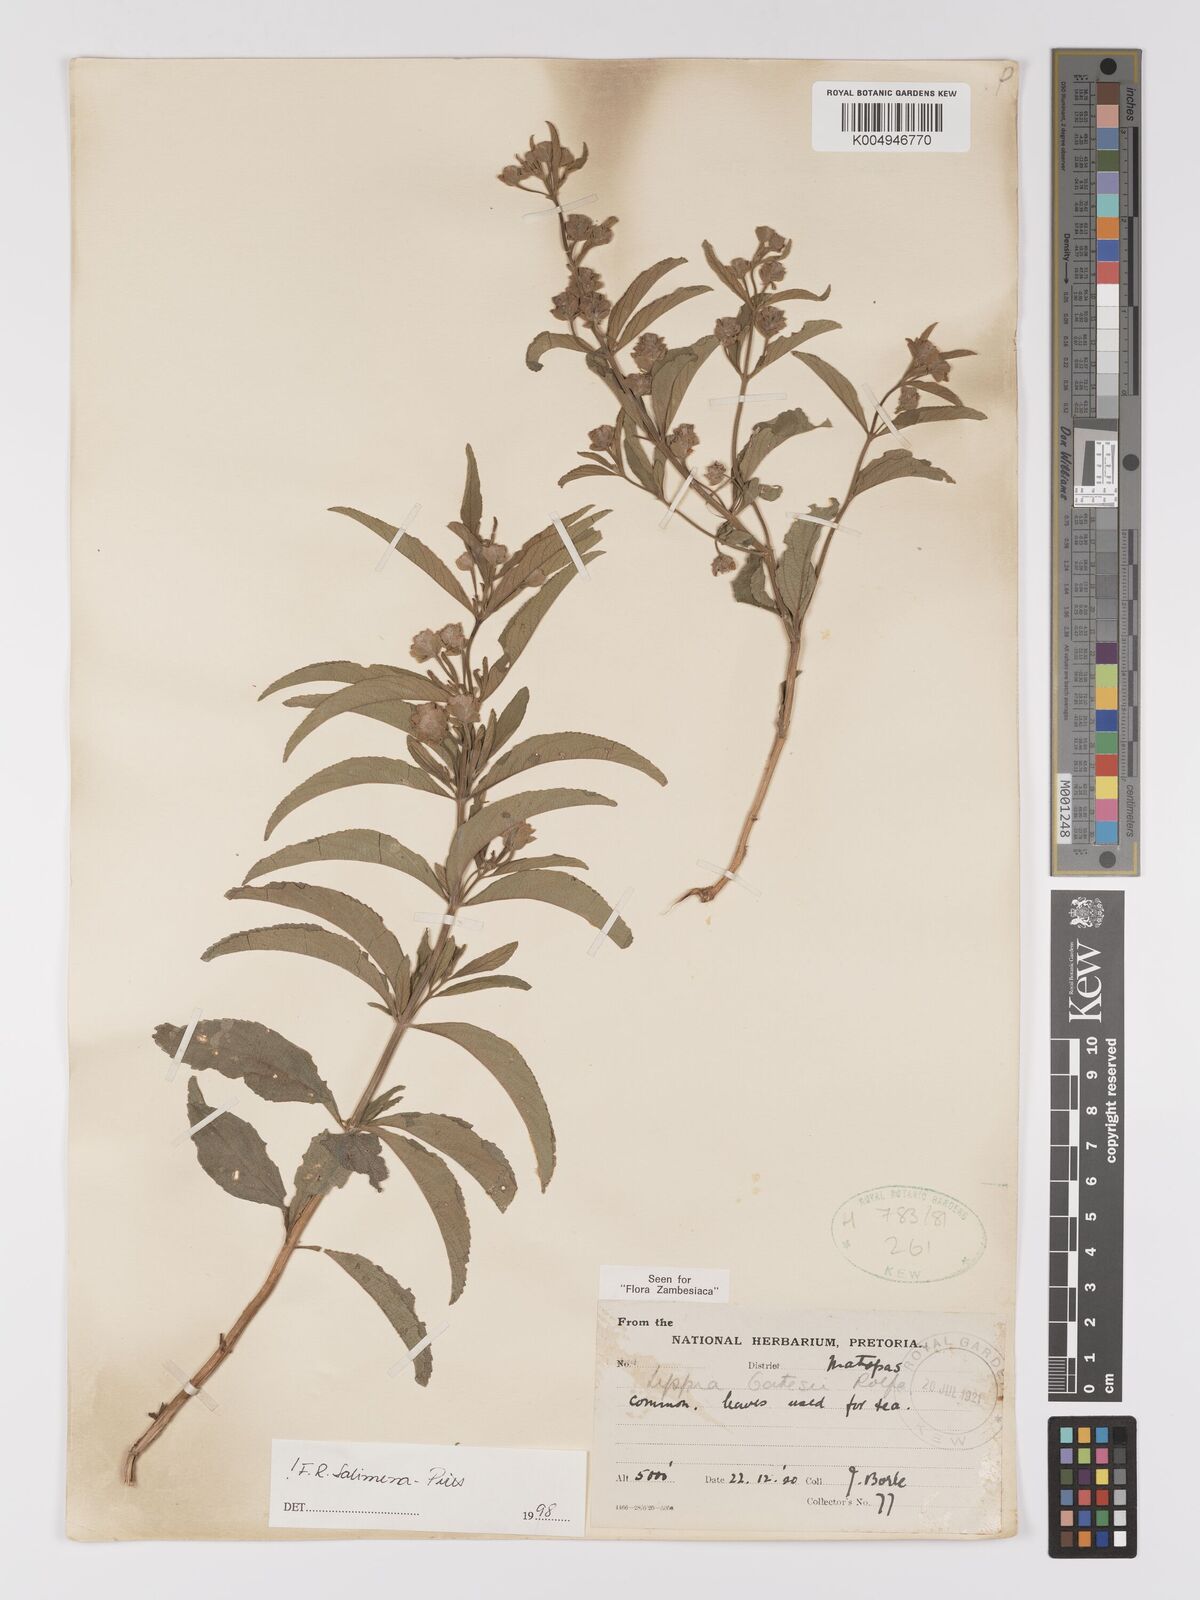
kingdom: Plantae
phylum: Tracheophyta
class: Magnoliopsida
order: Lamiales
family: Verbenaceae
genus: Lippia
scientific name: Lippia oatesii
